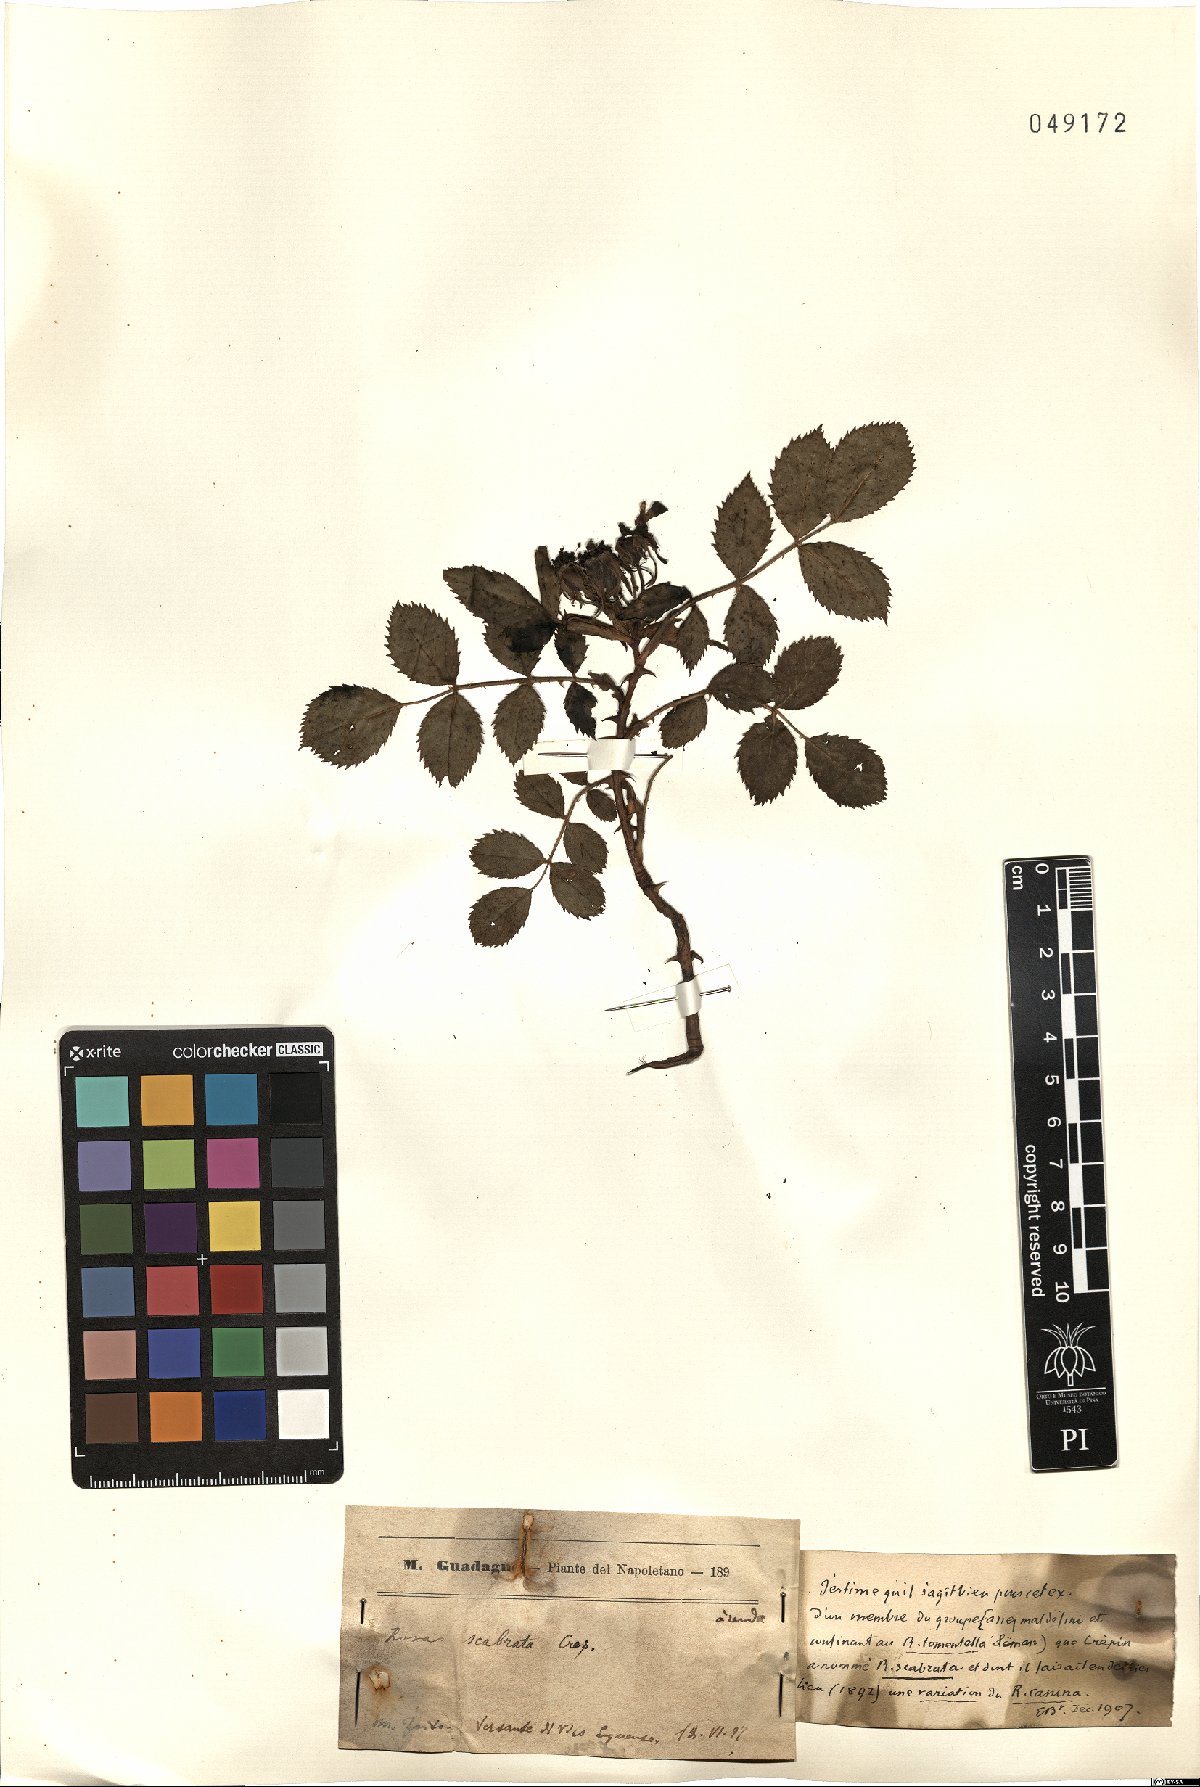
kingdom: Plantae
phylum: Tracheophyta
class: Magnoliopsida
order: Rosales
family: Rosaceae
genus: Rosa
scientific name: Rosa canina
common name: Dog rose
